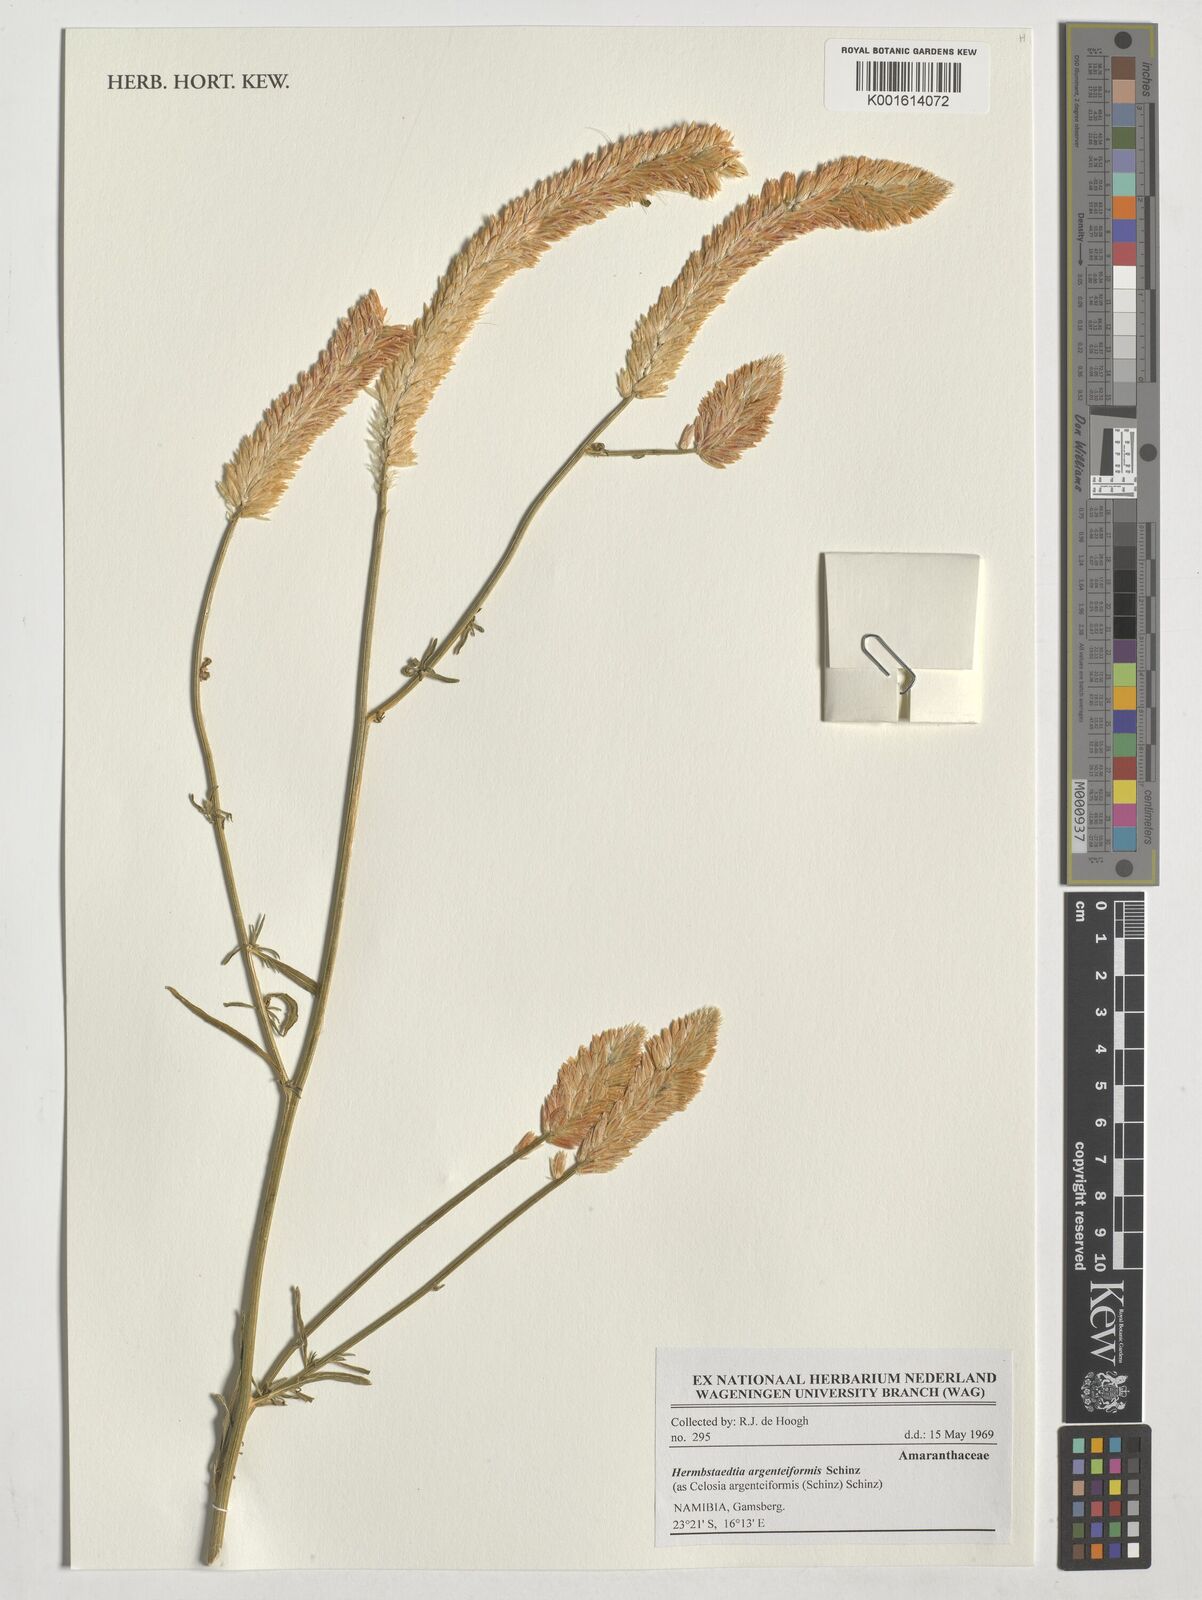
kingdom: Plantae
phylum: Tracheophyta
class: Magnoliopsida
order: Caryophyllales
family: Amaranthaceae
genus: Hermbstaedtia
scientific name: Hermbstaedtia argenteiformis
